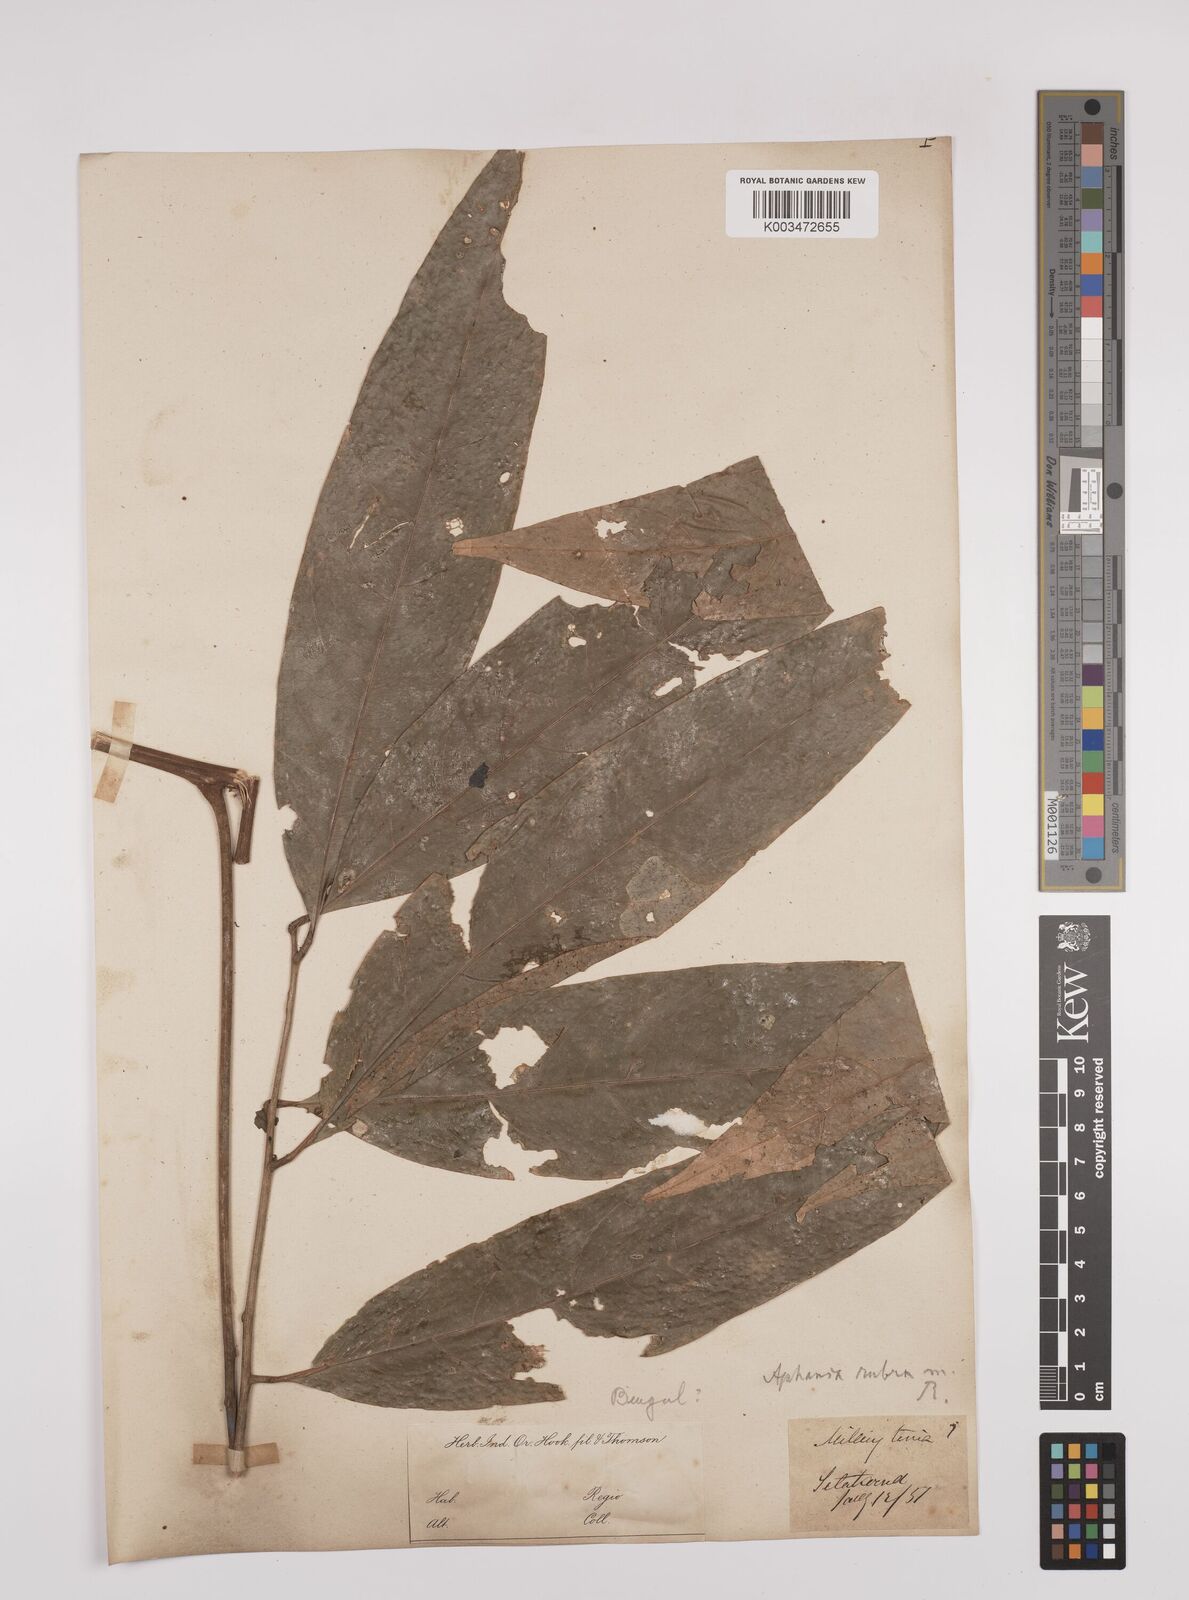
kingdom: Plantae
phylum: Tracheophyta
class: Magnoliopsida
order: Sapindales
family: Sapindaceae
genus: Lepisanthes
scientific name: Lepisanthes senegalensis
